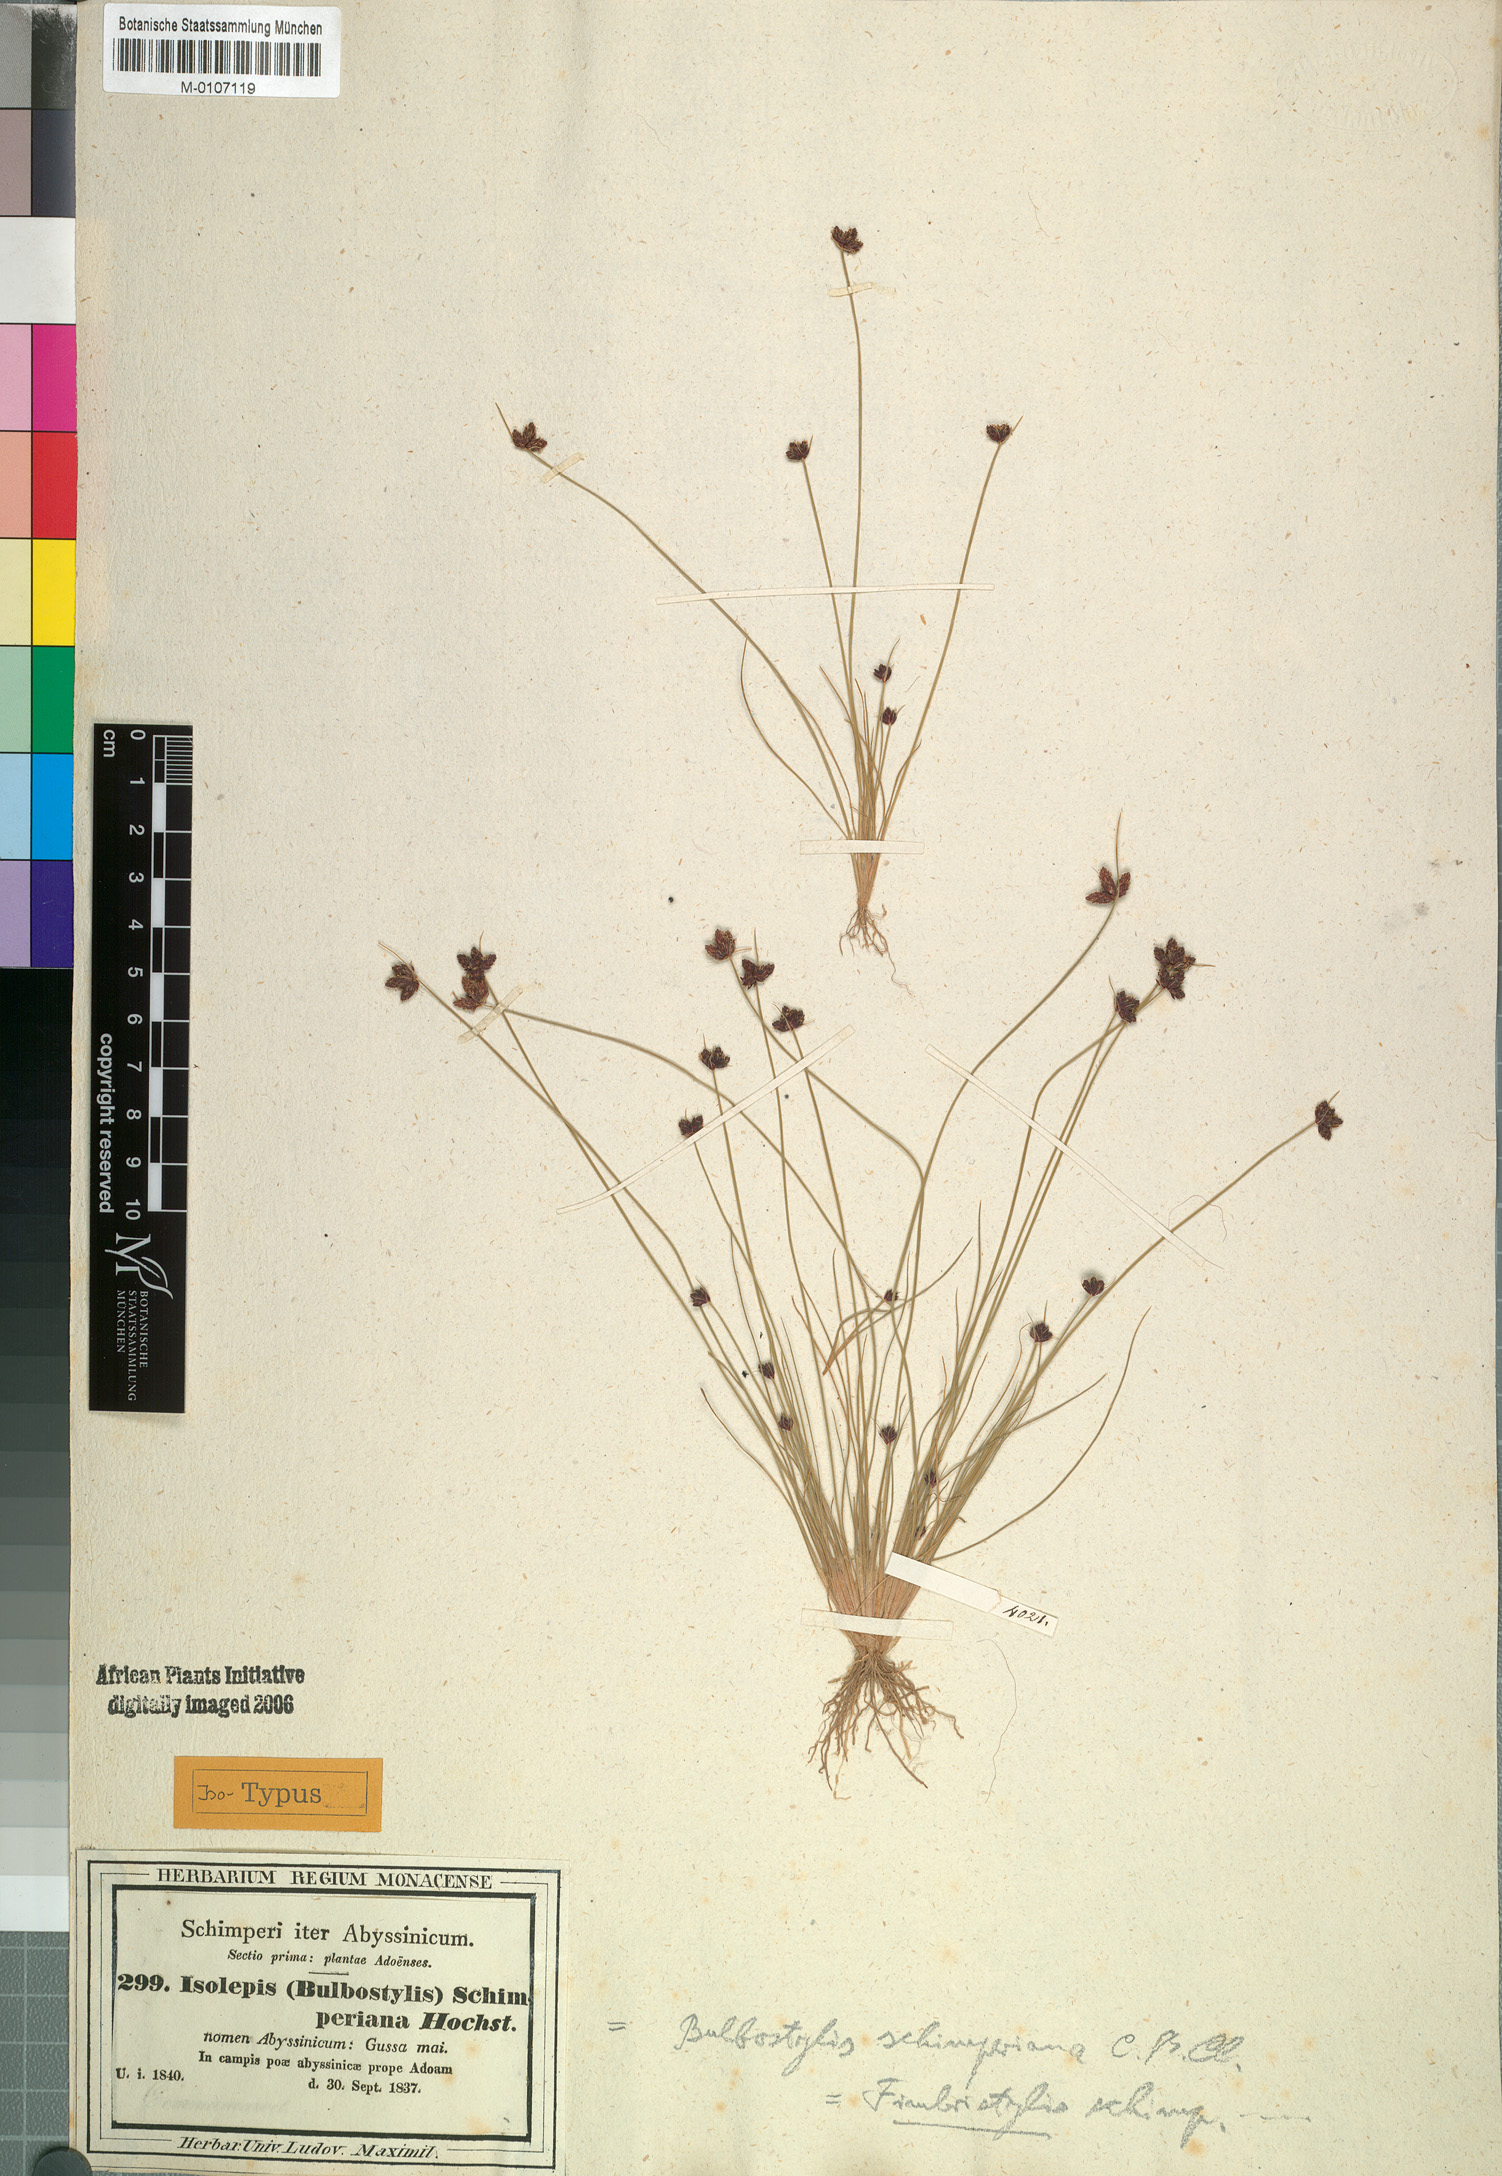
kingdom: Plantae
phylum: Tracheophyta
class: Liliopsida
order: Poales
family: Cyperaceae
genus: Bulbostylis
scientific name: Bulbostylis schimperiana
